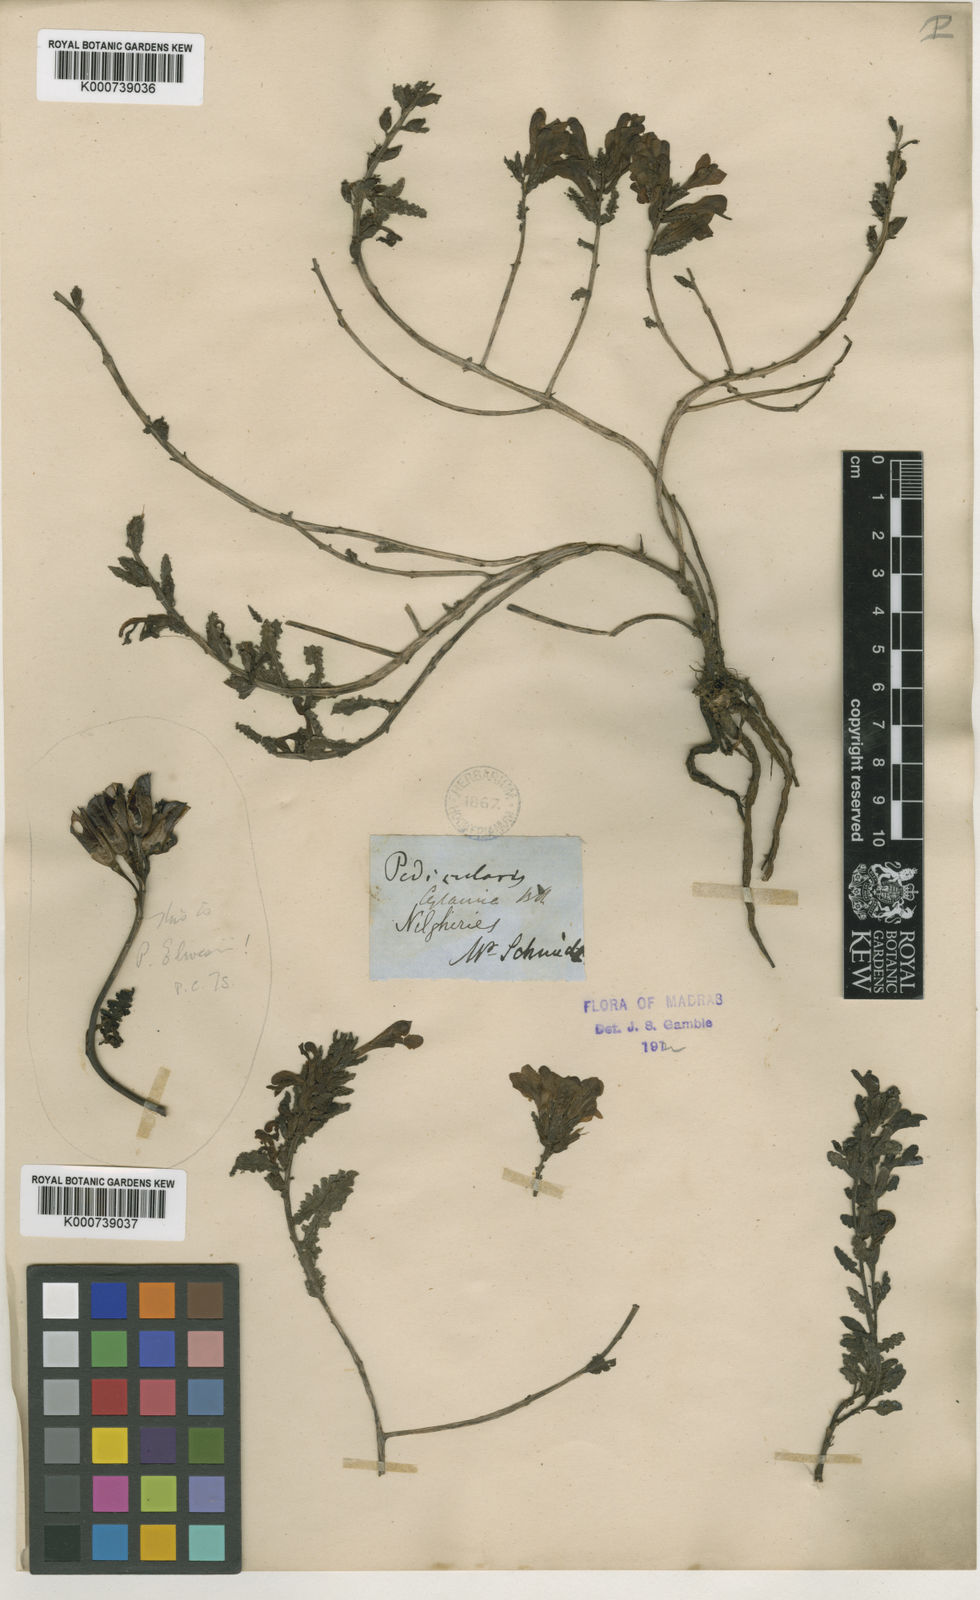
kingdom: Plantae
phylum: Tracheophyta
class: Magnoliopsida
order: Lamiales
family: Orobanchaceae
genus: Pedicularis
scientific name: Pedicularis zeylanica
